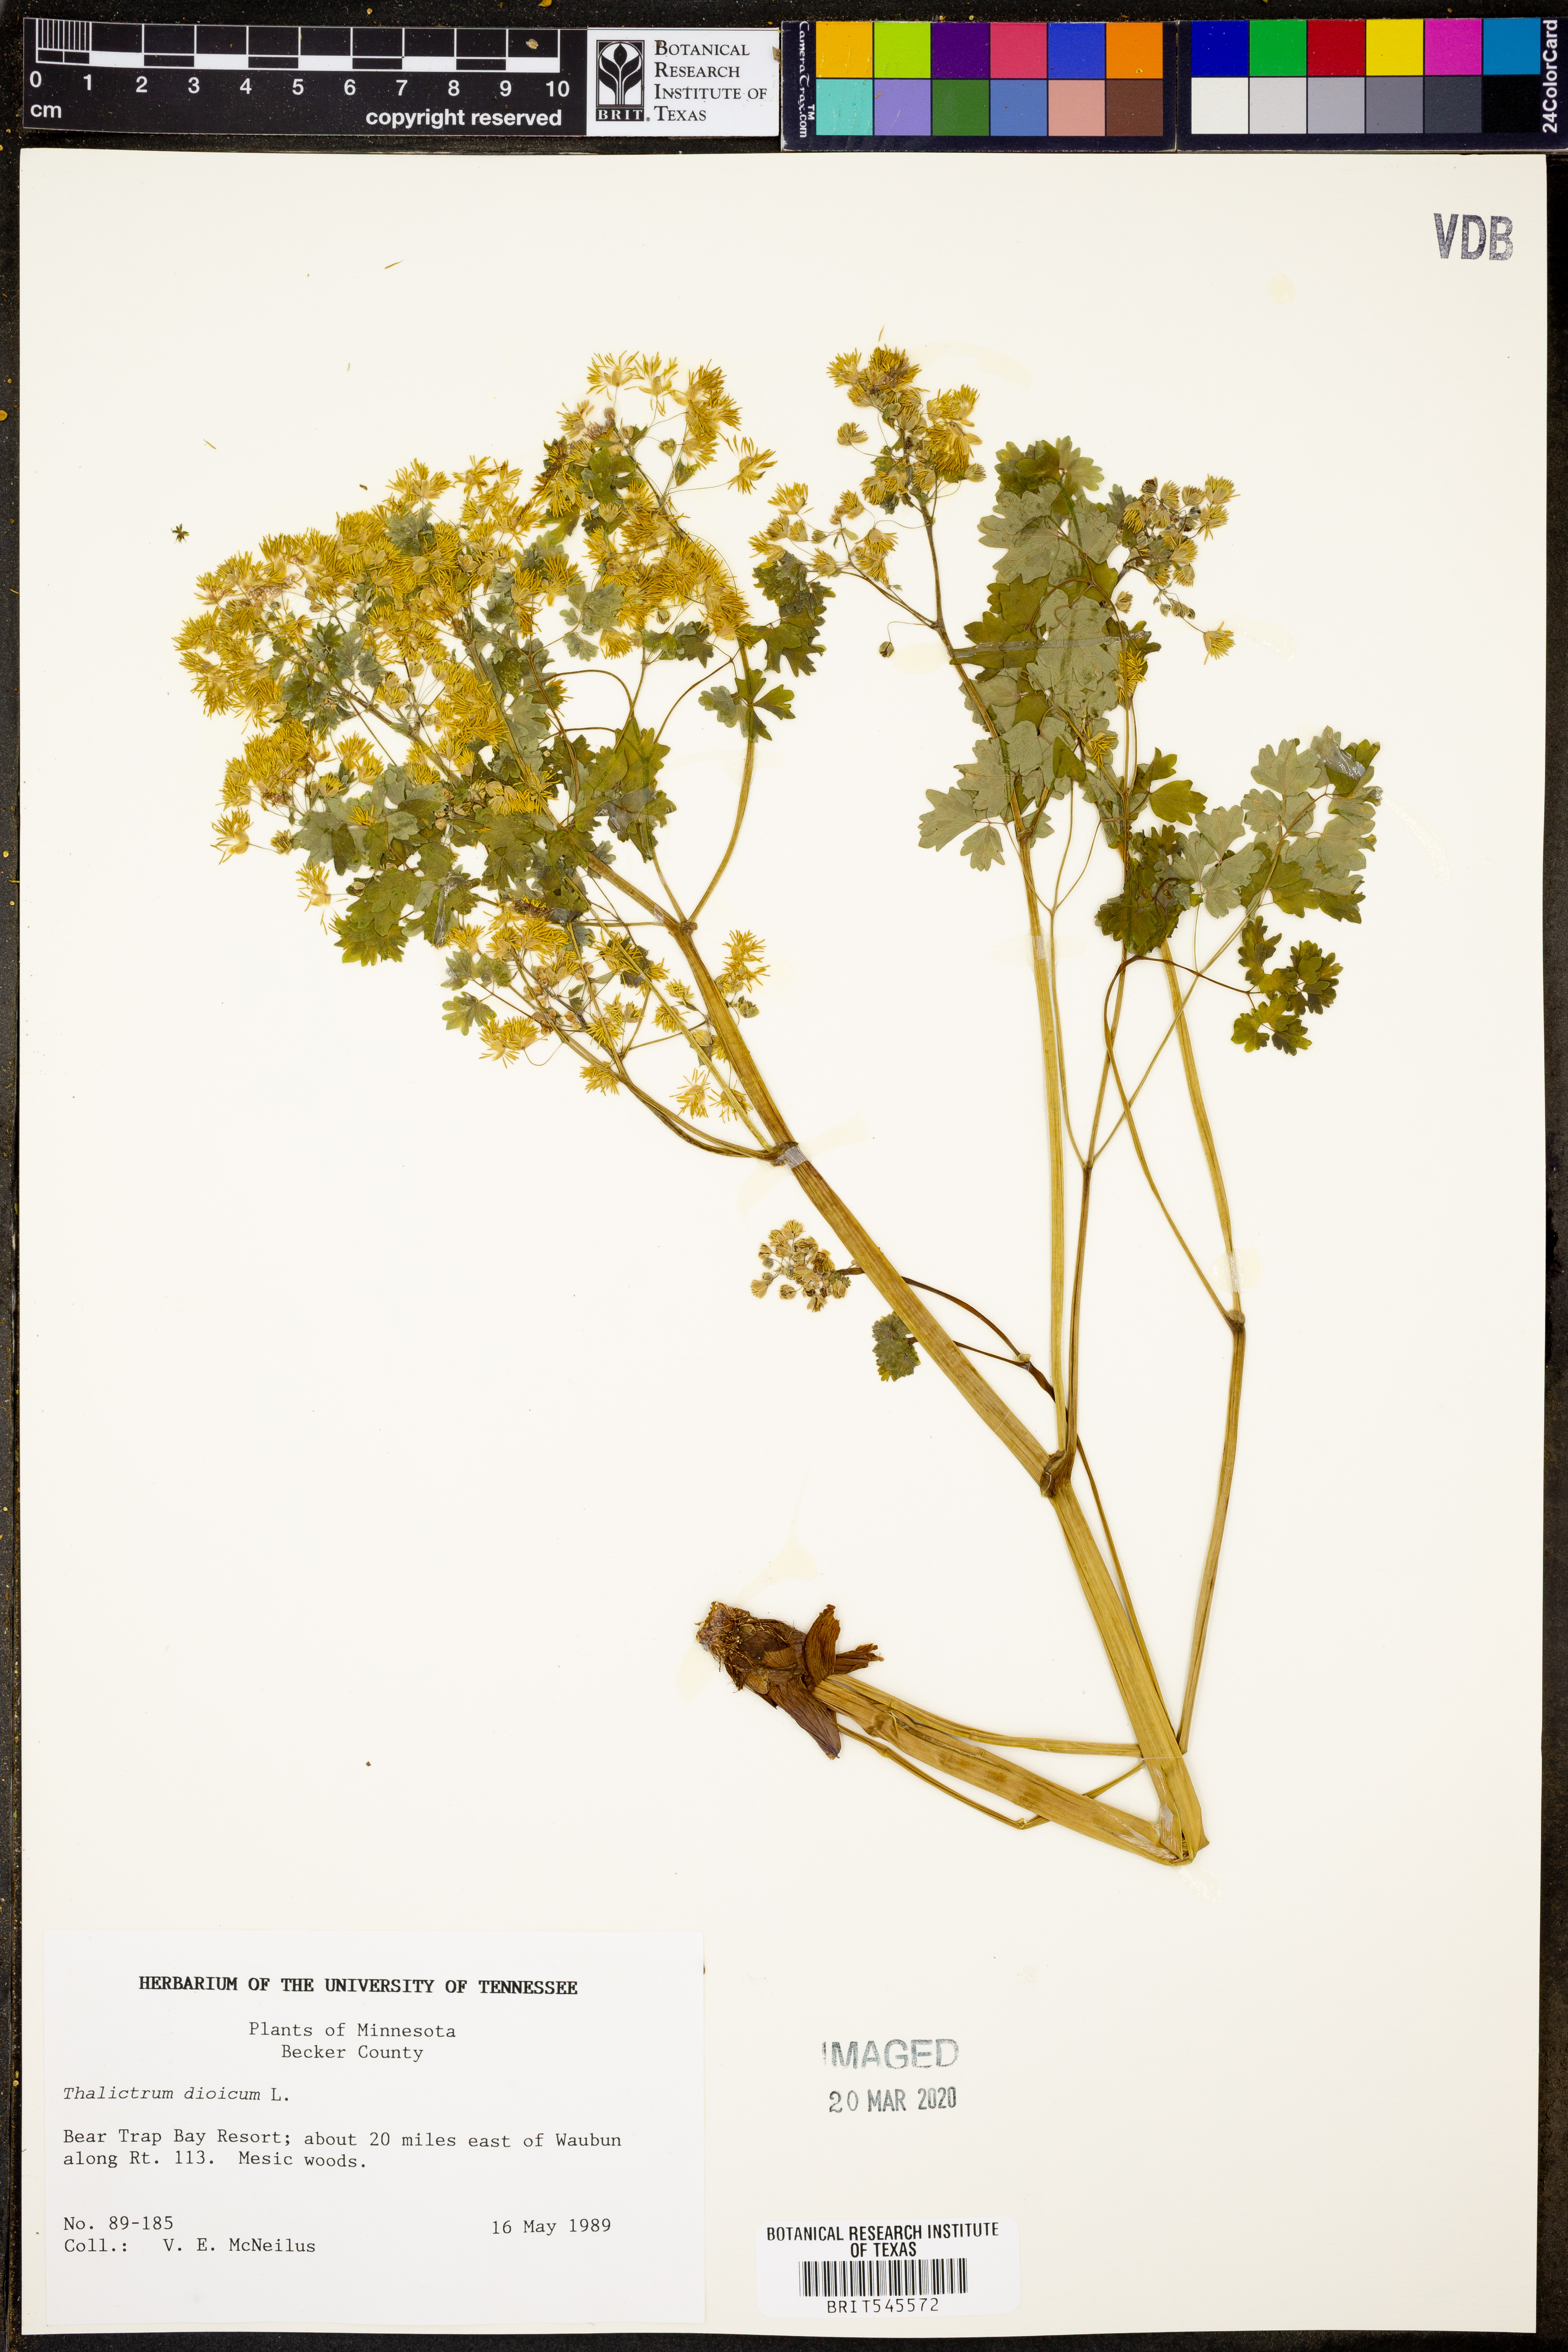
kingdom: Plantae
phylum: Tracheophyta
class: Magnoliopsida
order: Ranunculales
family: Ranunculaceae
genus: Thalictrum
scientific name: Thalictrum dioicum
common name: Early meadow-rue
